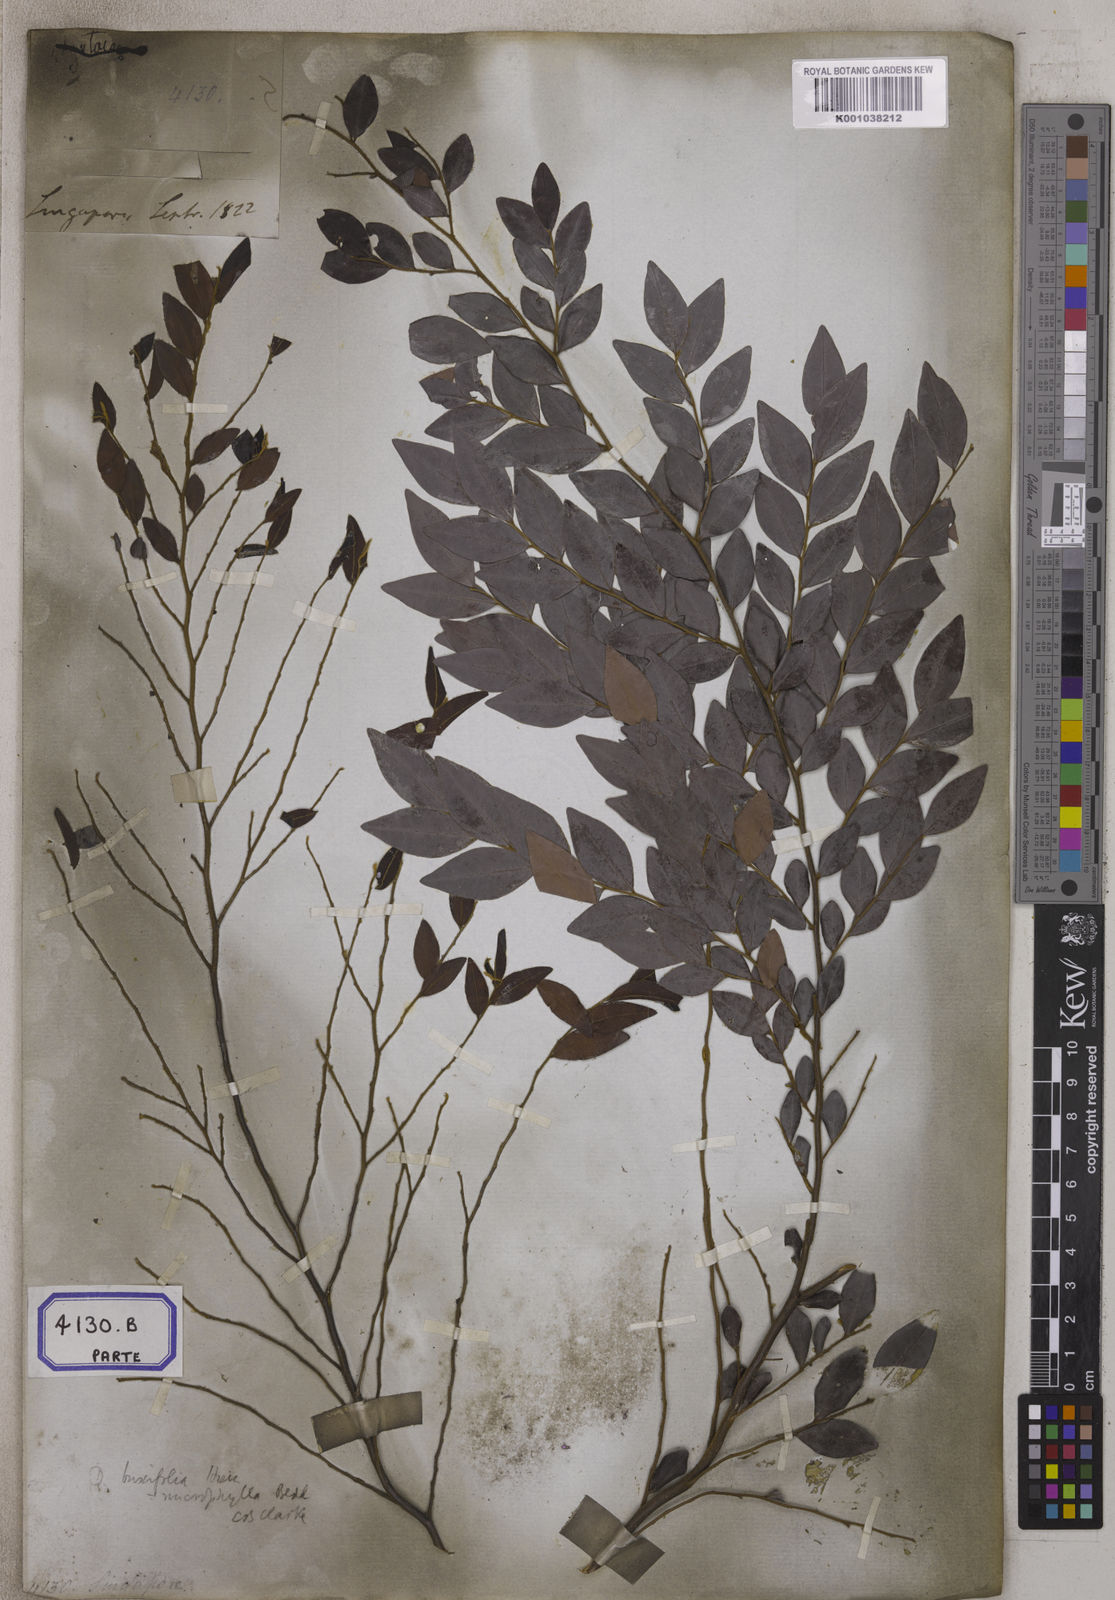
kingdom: Plantae
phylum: Tracheophyta
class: Magnoliopsida
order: Ericales
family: Ebenaceae
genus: Diospyros
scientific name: Diospyros vaccinioides
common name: Small persimmon
